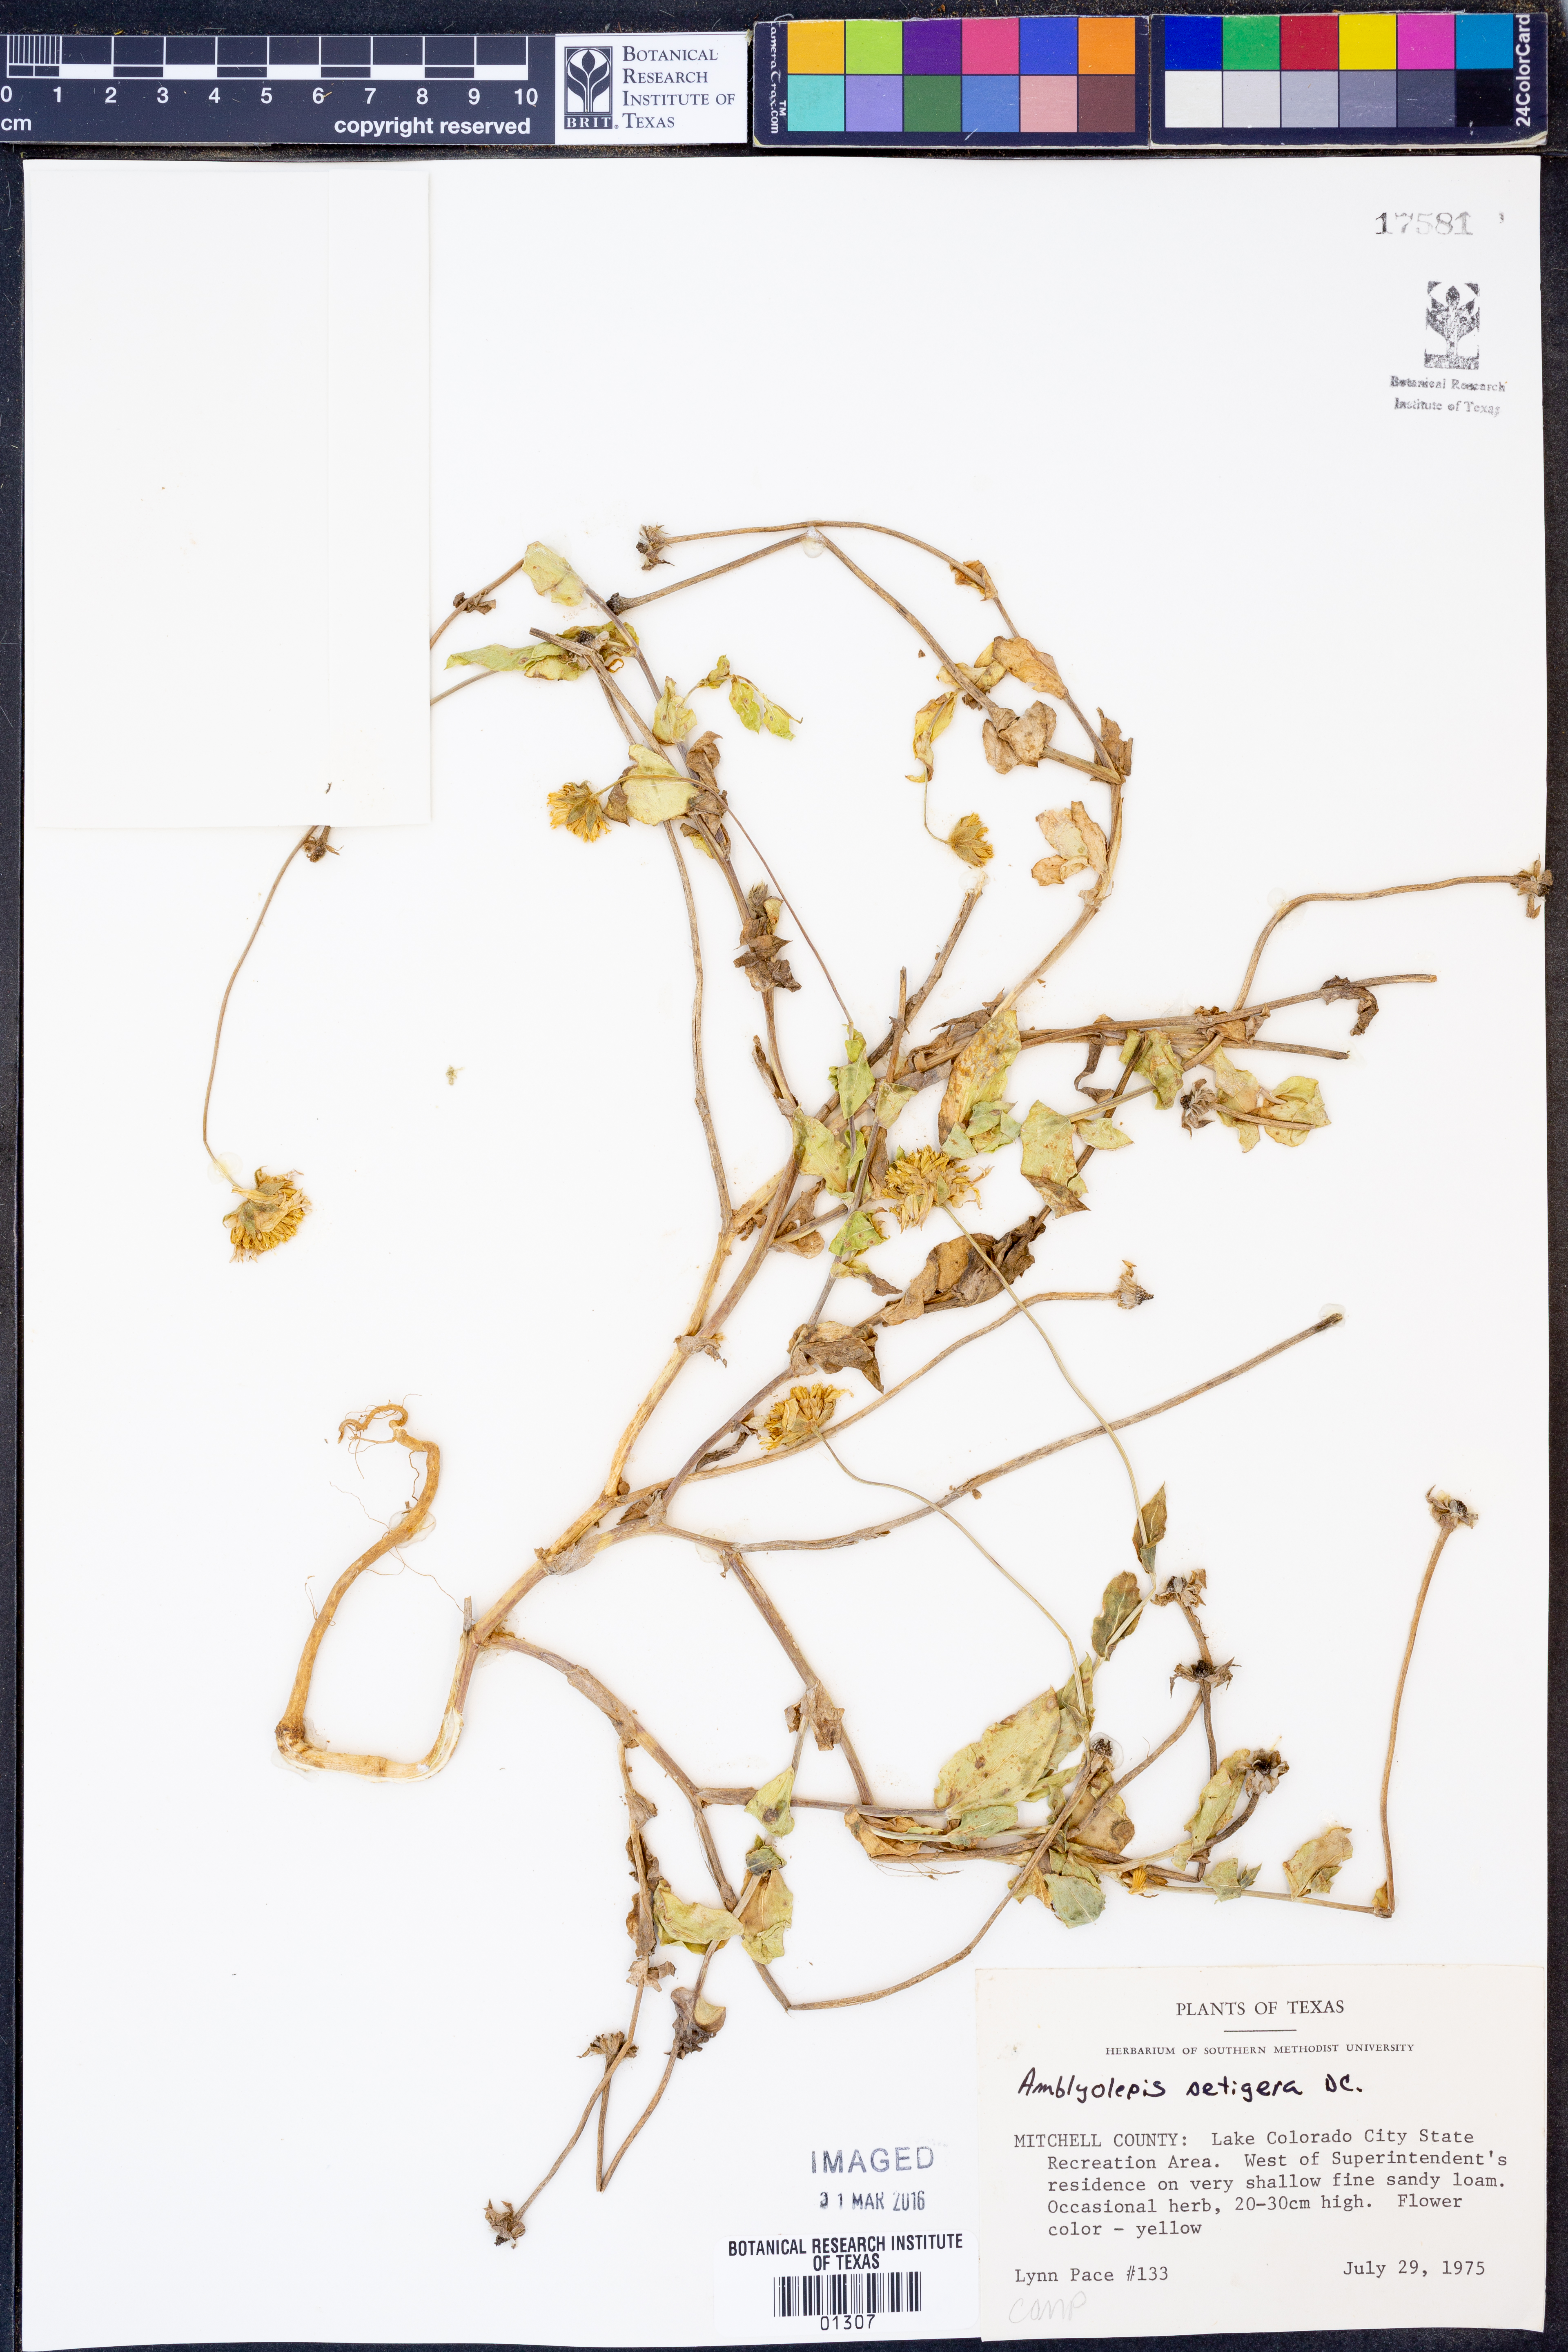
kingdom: Plantae
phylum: Tracheophyta
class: Magnoliopsida
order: Asterales
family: Asteraceae
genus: Amblyolepis
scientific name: Amblyolepis setigera
